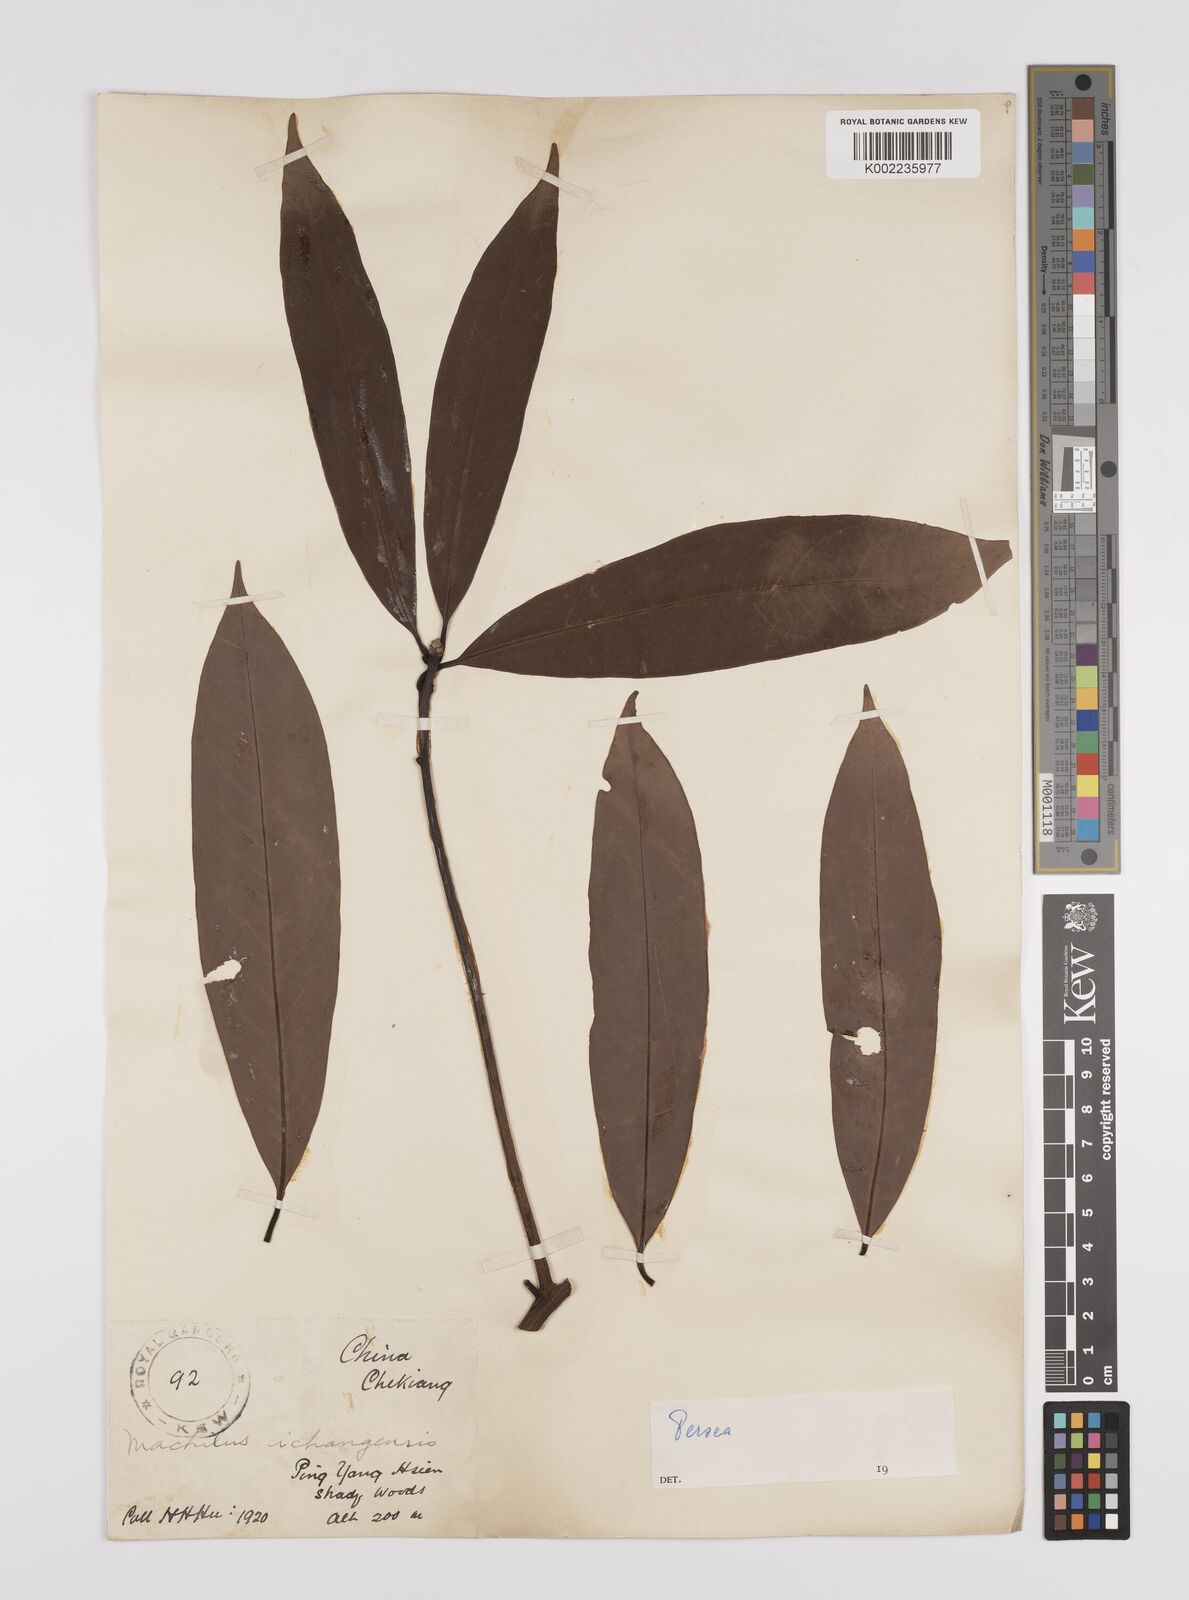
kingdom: Plantae
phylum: Tracheophyta
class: Magnoliopsida
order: Laurales
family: Lauraceae
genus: Persea
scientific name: Persea
